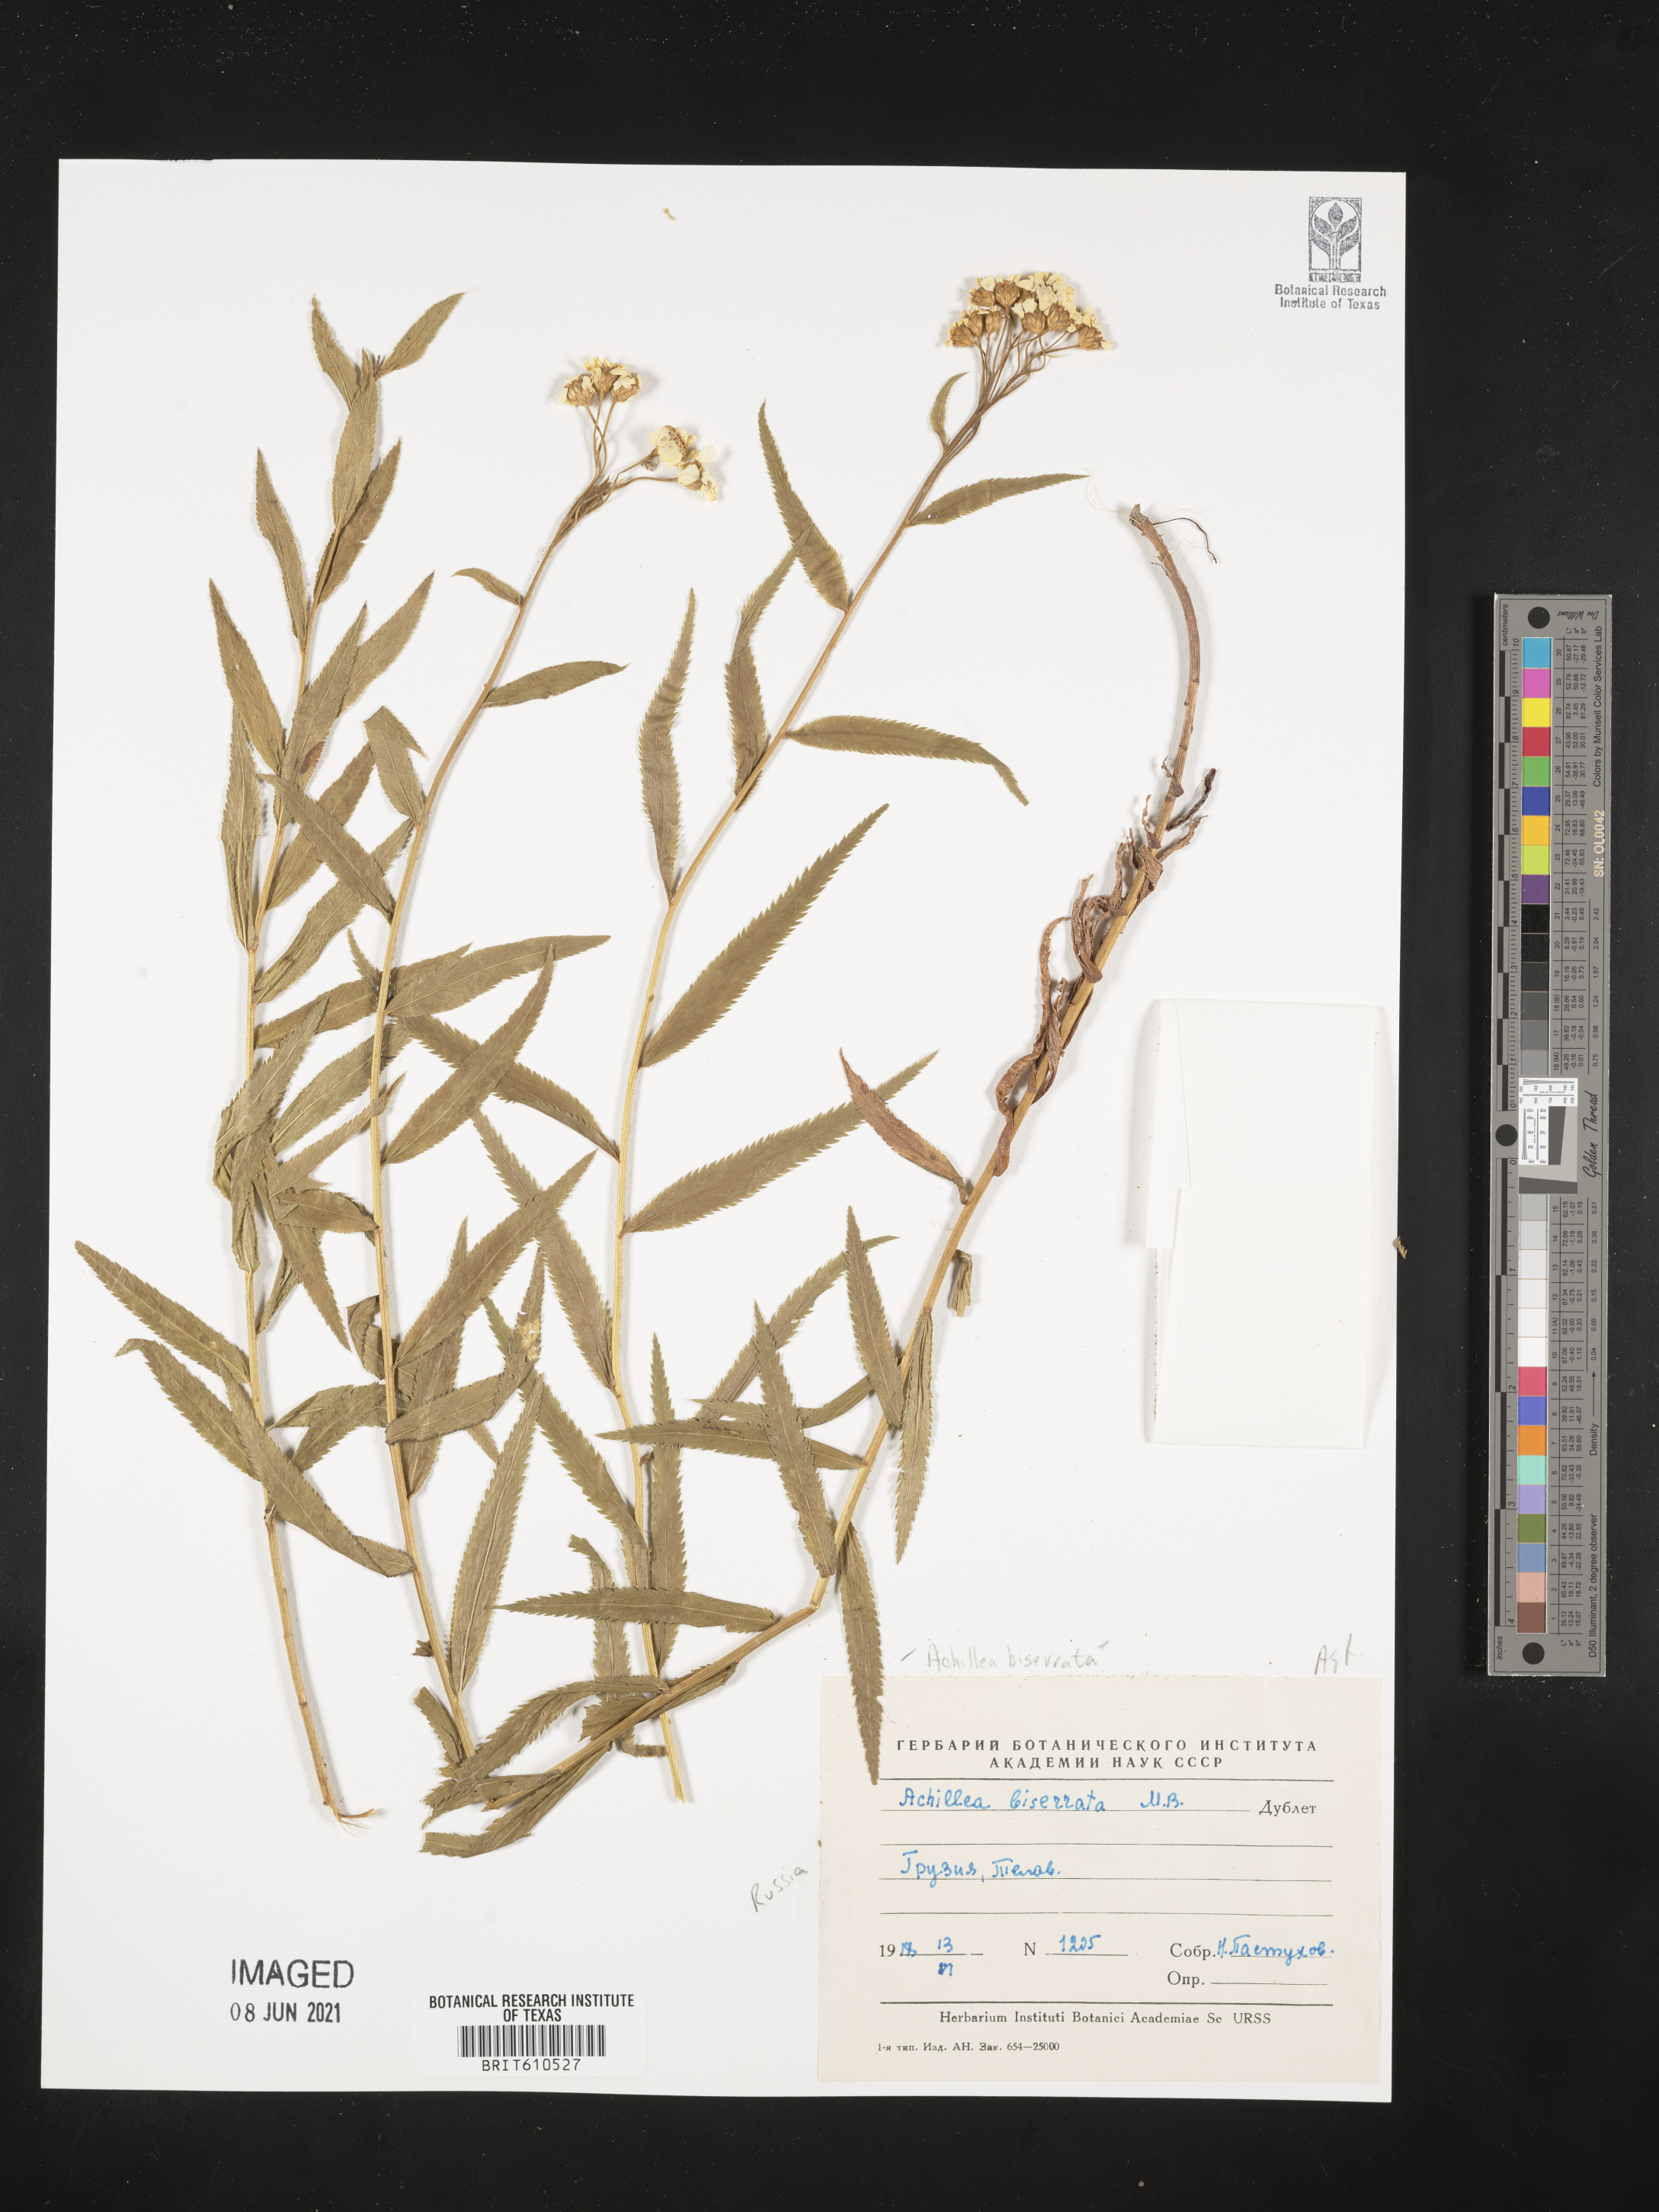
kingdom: Plantae
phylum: Tracheophyta
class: Magnoliopsida
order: Asterales
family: Asteraceae
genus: Achillea
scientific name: Achillea biserrata
